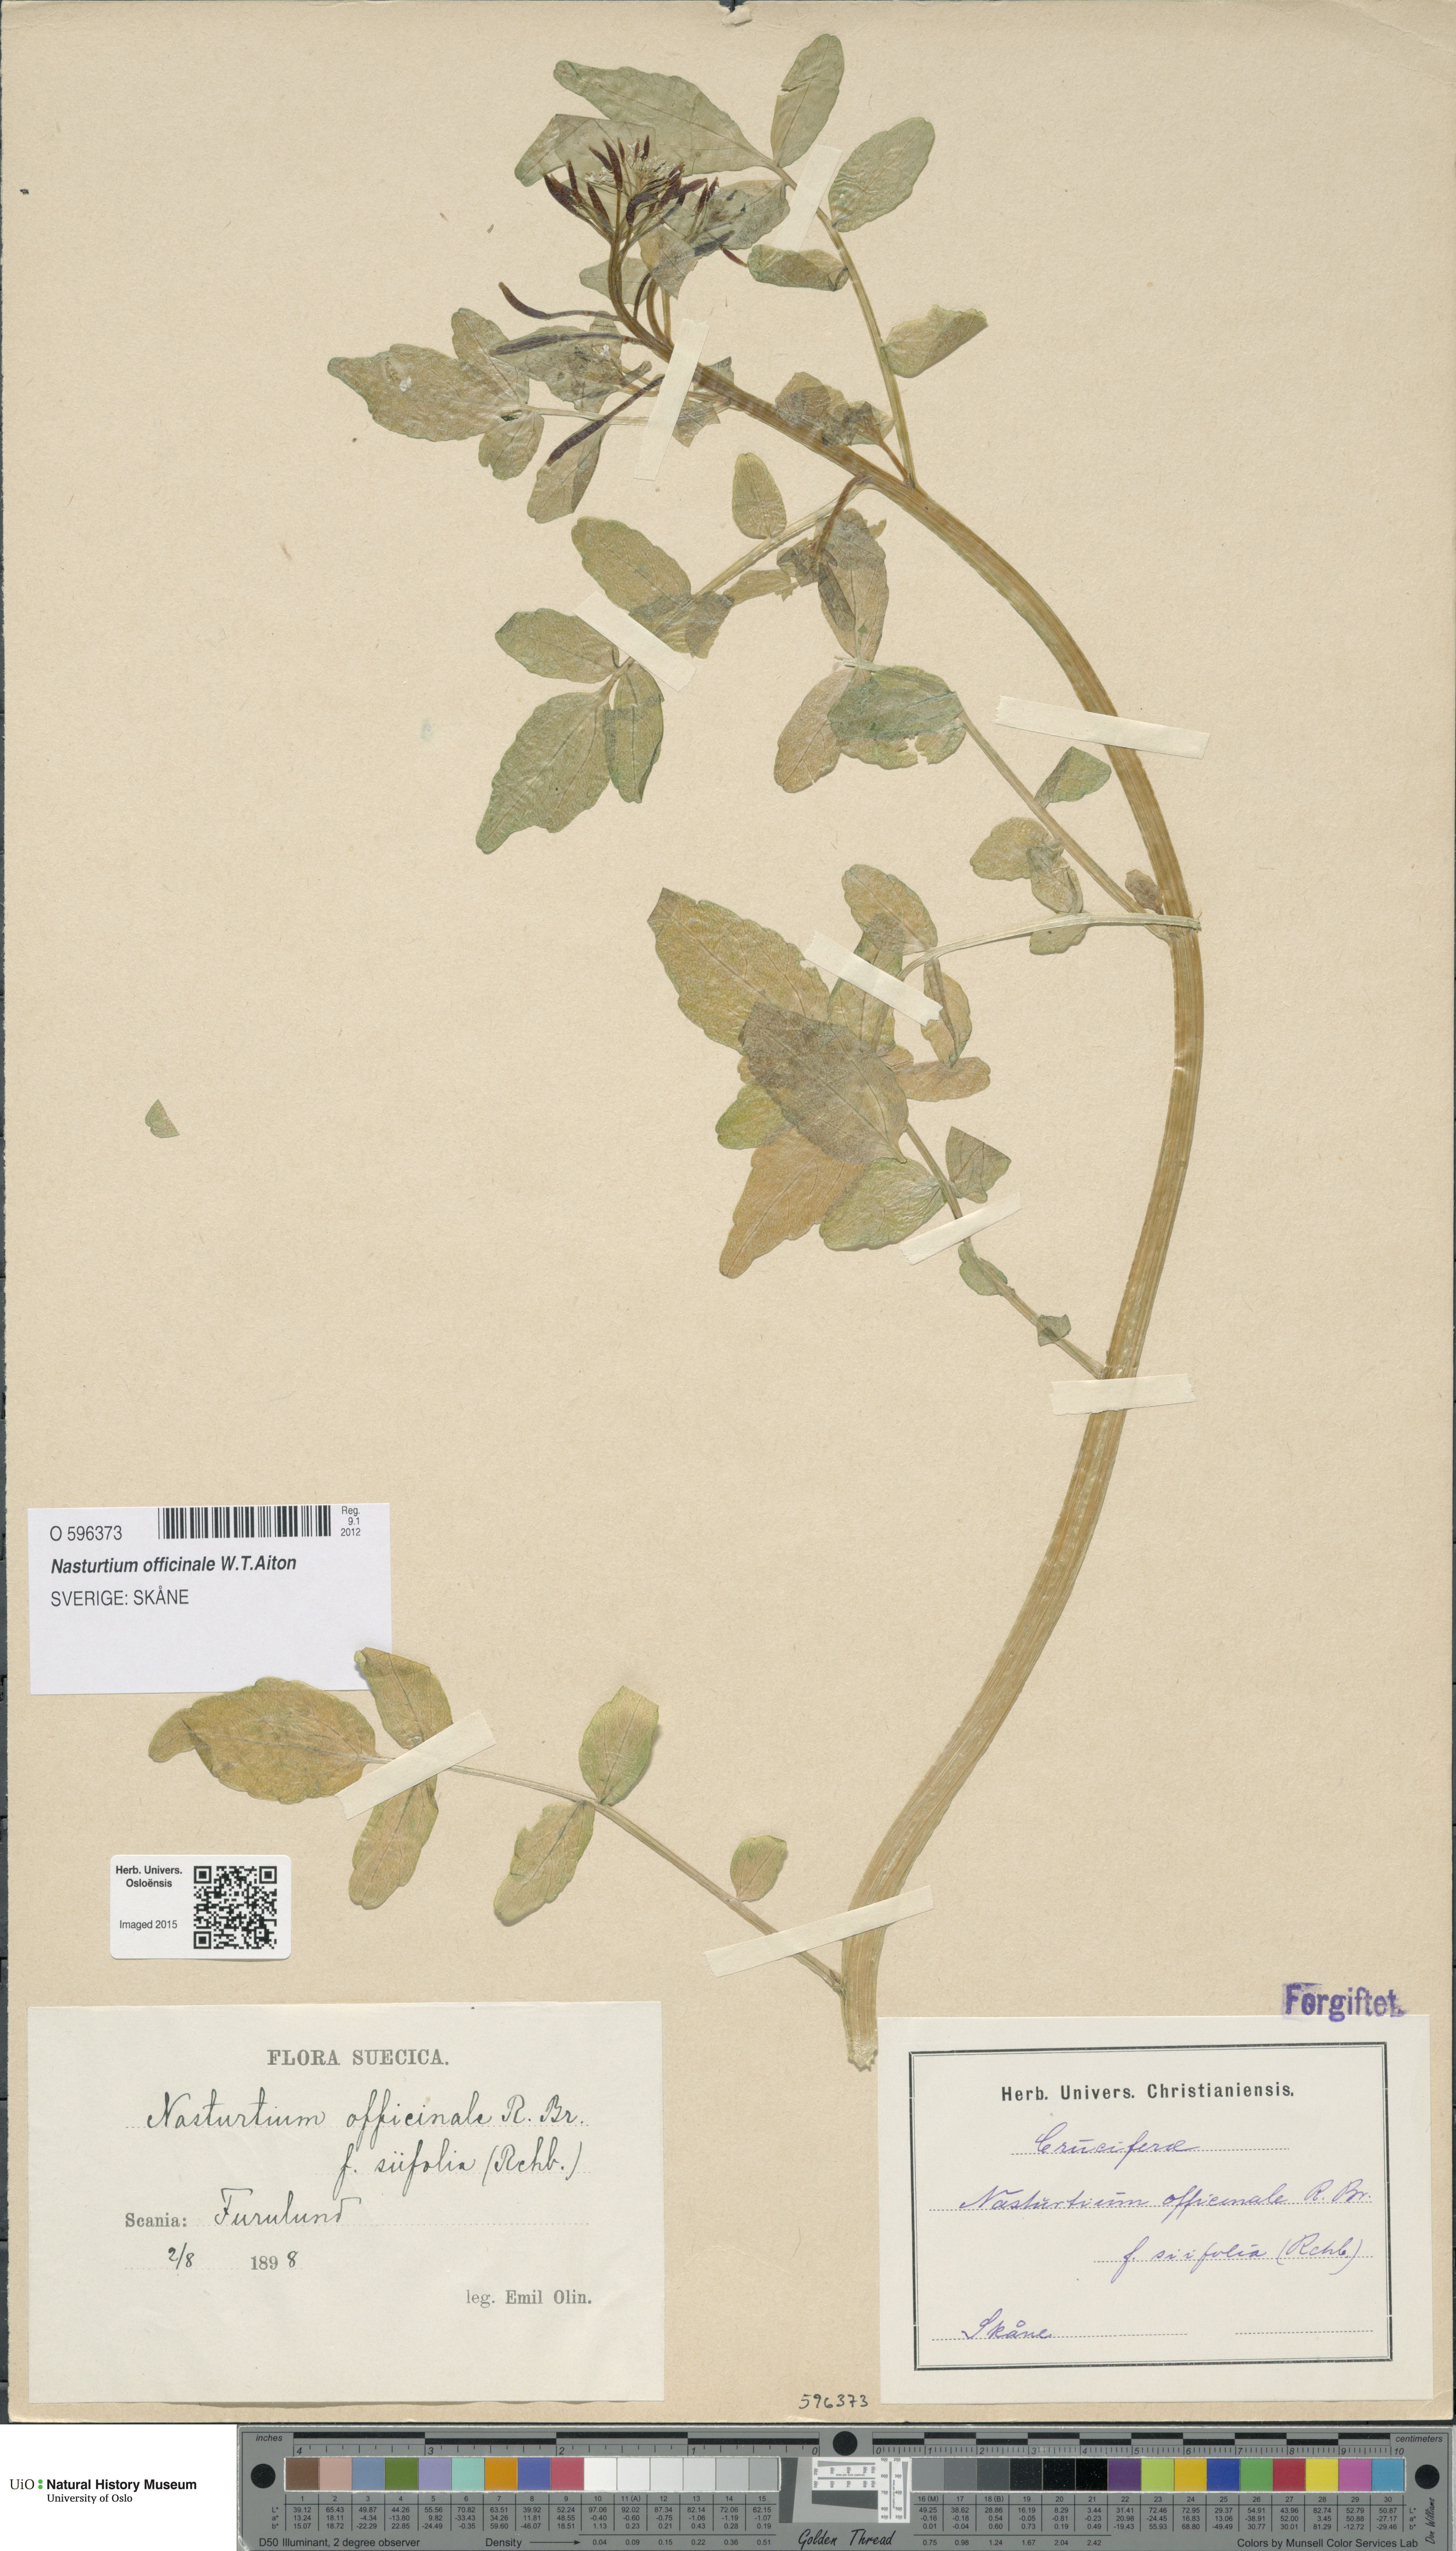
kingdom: Plantae
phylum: Tracheophyta
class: Magnoliopsida
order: Brassicales
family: Brassicaceae
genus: Nasturtium
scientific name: Nasturtium officinale
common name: Watercress
